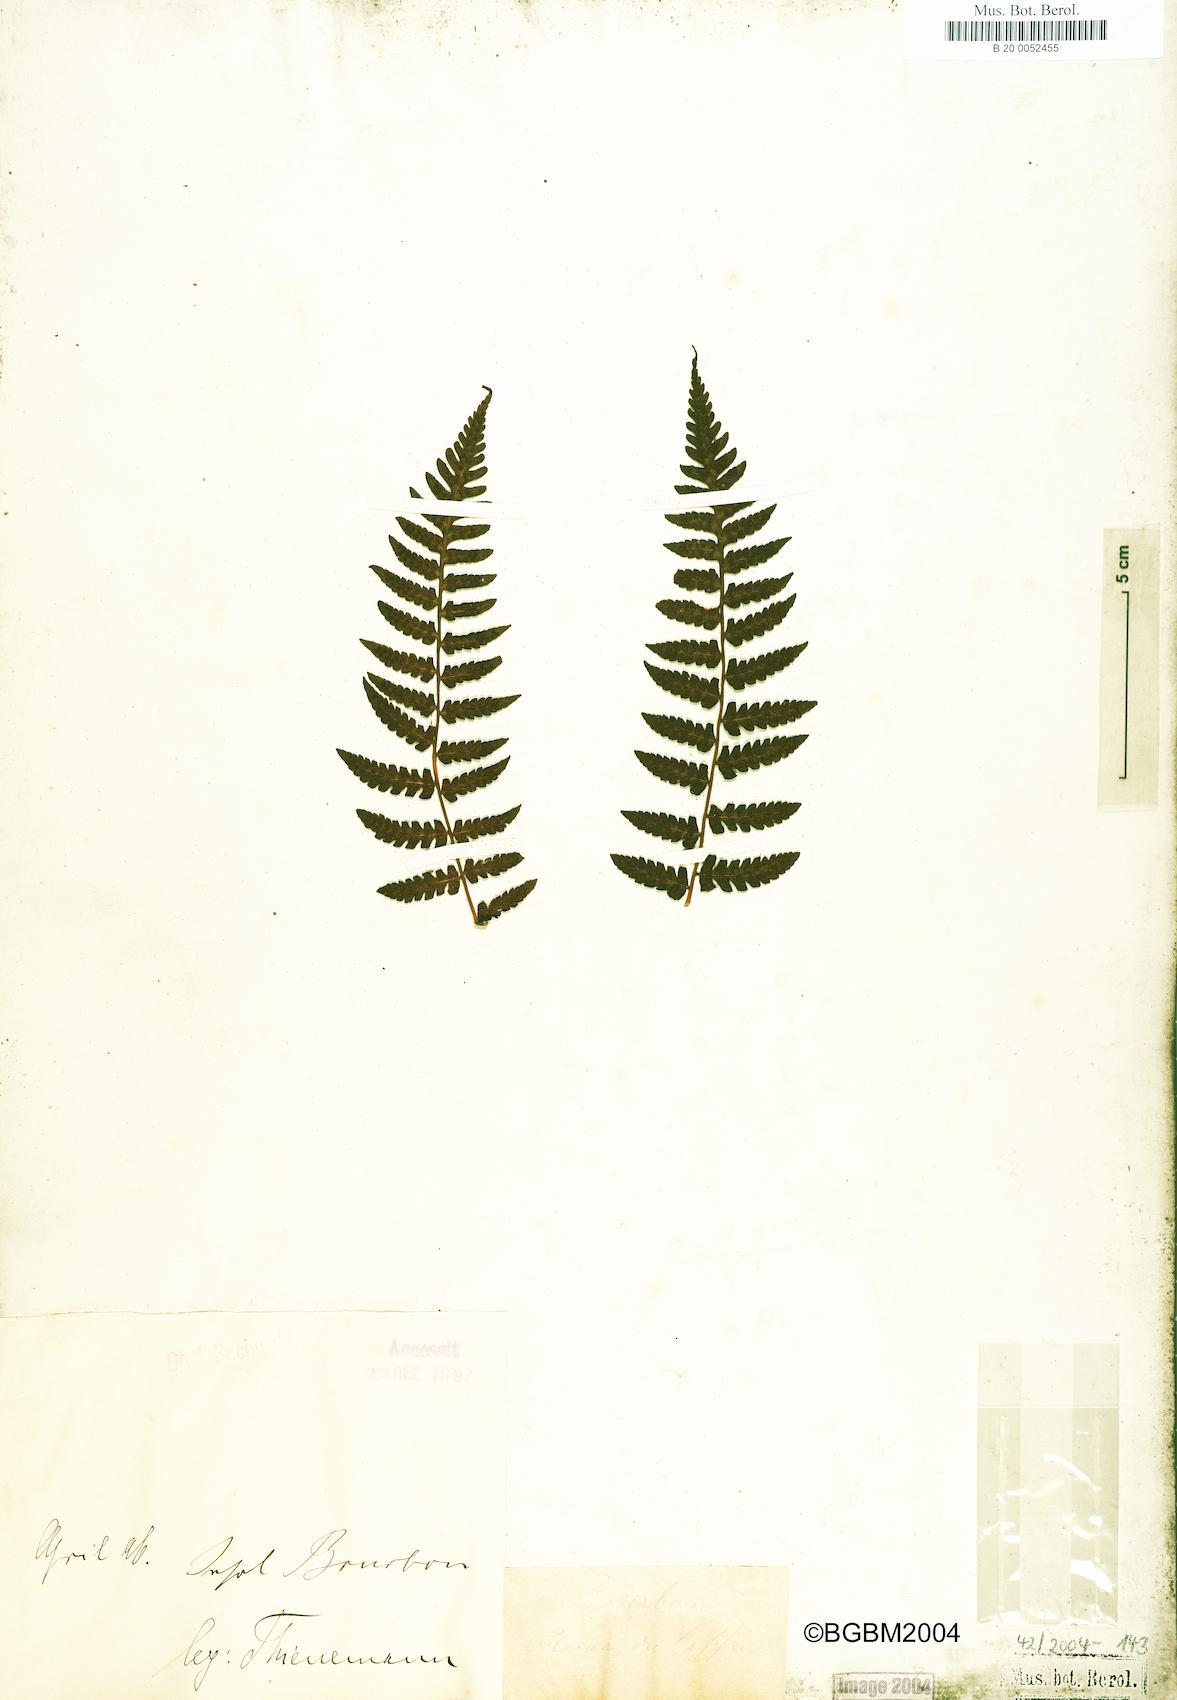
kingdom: Plantae
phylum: Tracheophyta
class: Polypodiopsida
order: Polypodiales
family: Dryopteridaceae
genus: Dryopteris
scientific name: Dryopteris aquilinoides
